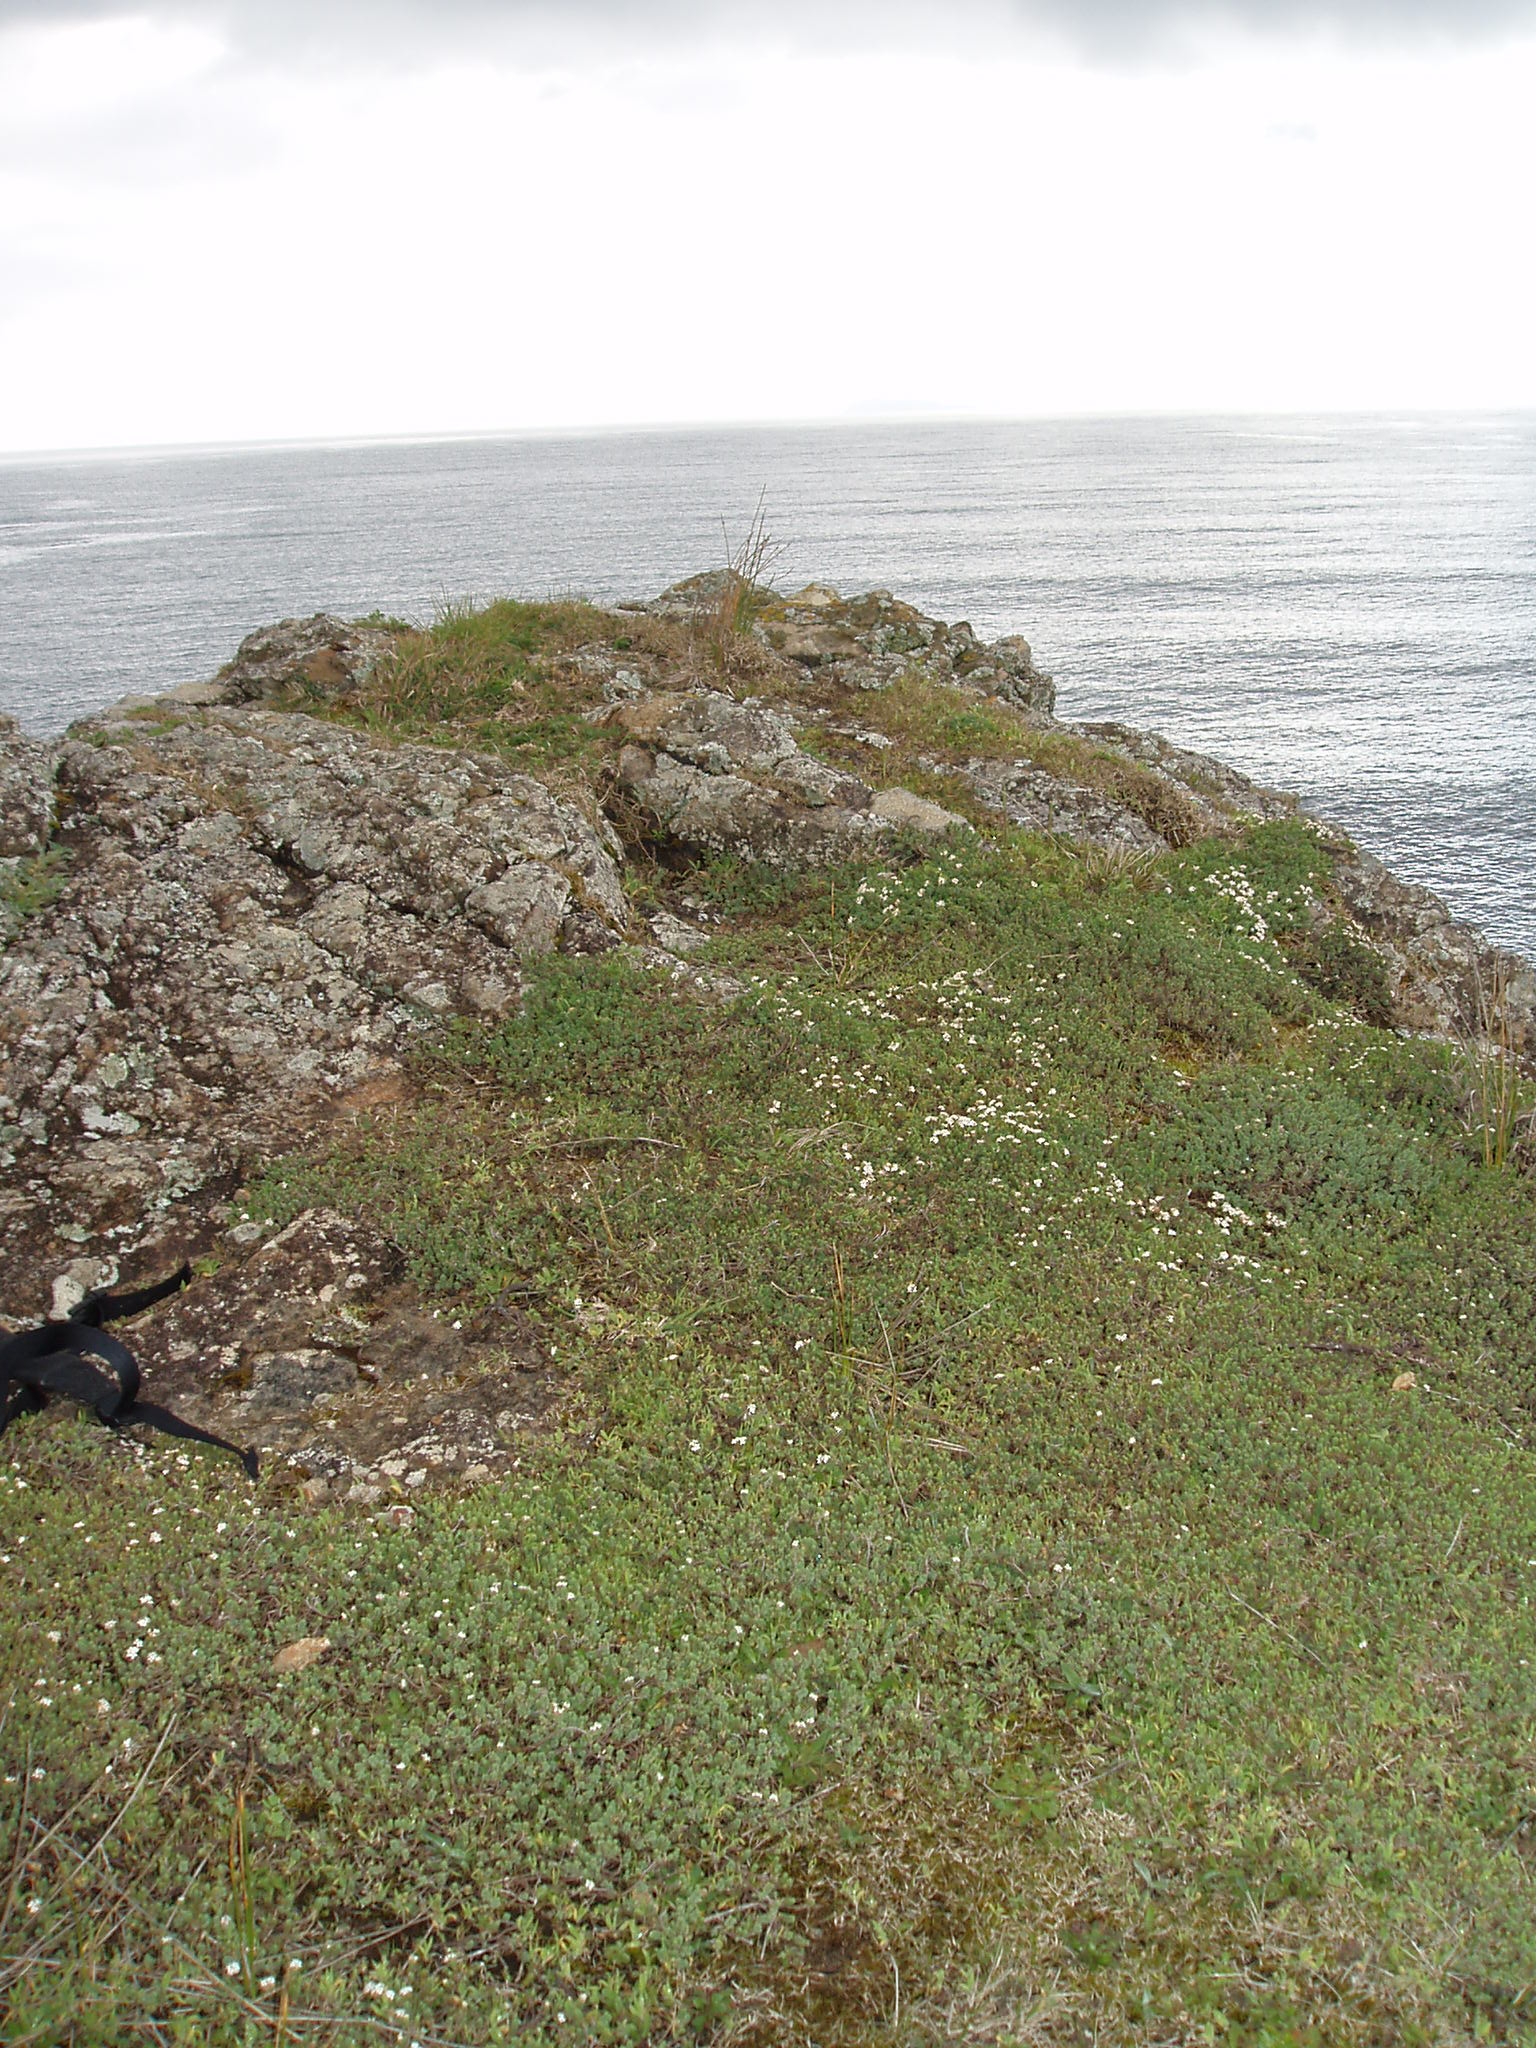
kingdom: Plantae
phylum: Tracheophyta
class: Magnoliopsida
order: Malvales
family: Thymelaeaceae
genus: Pimelea
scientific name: Pimelea urvilleana
